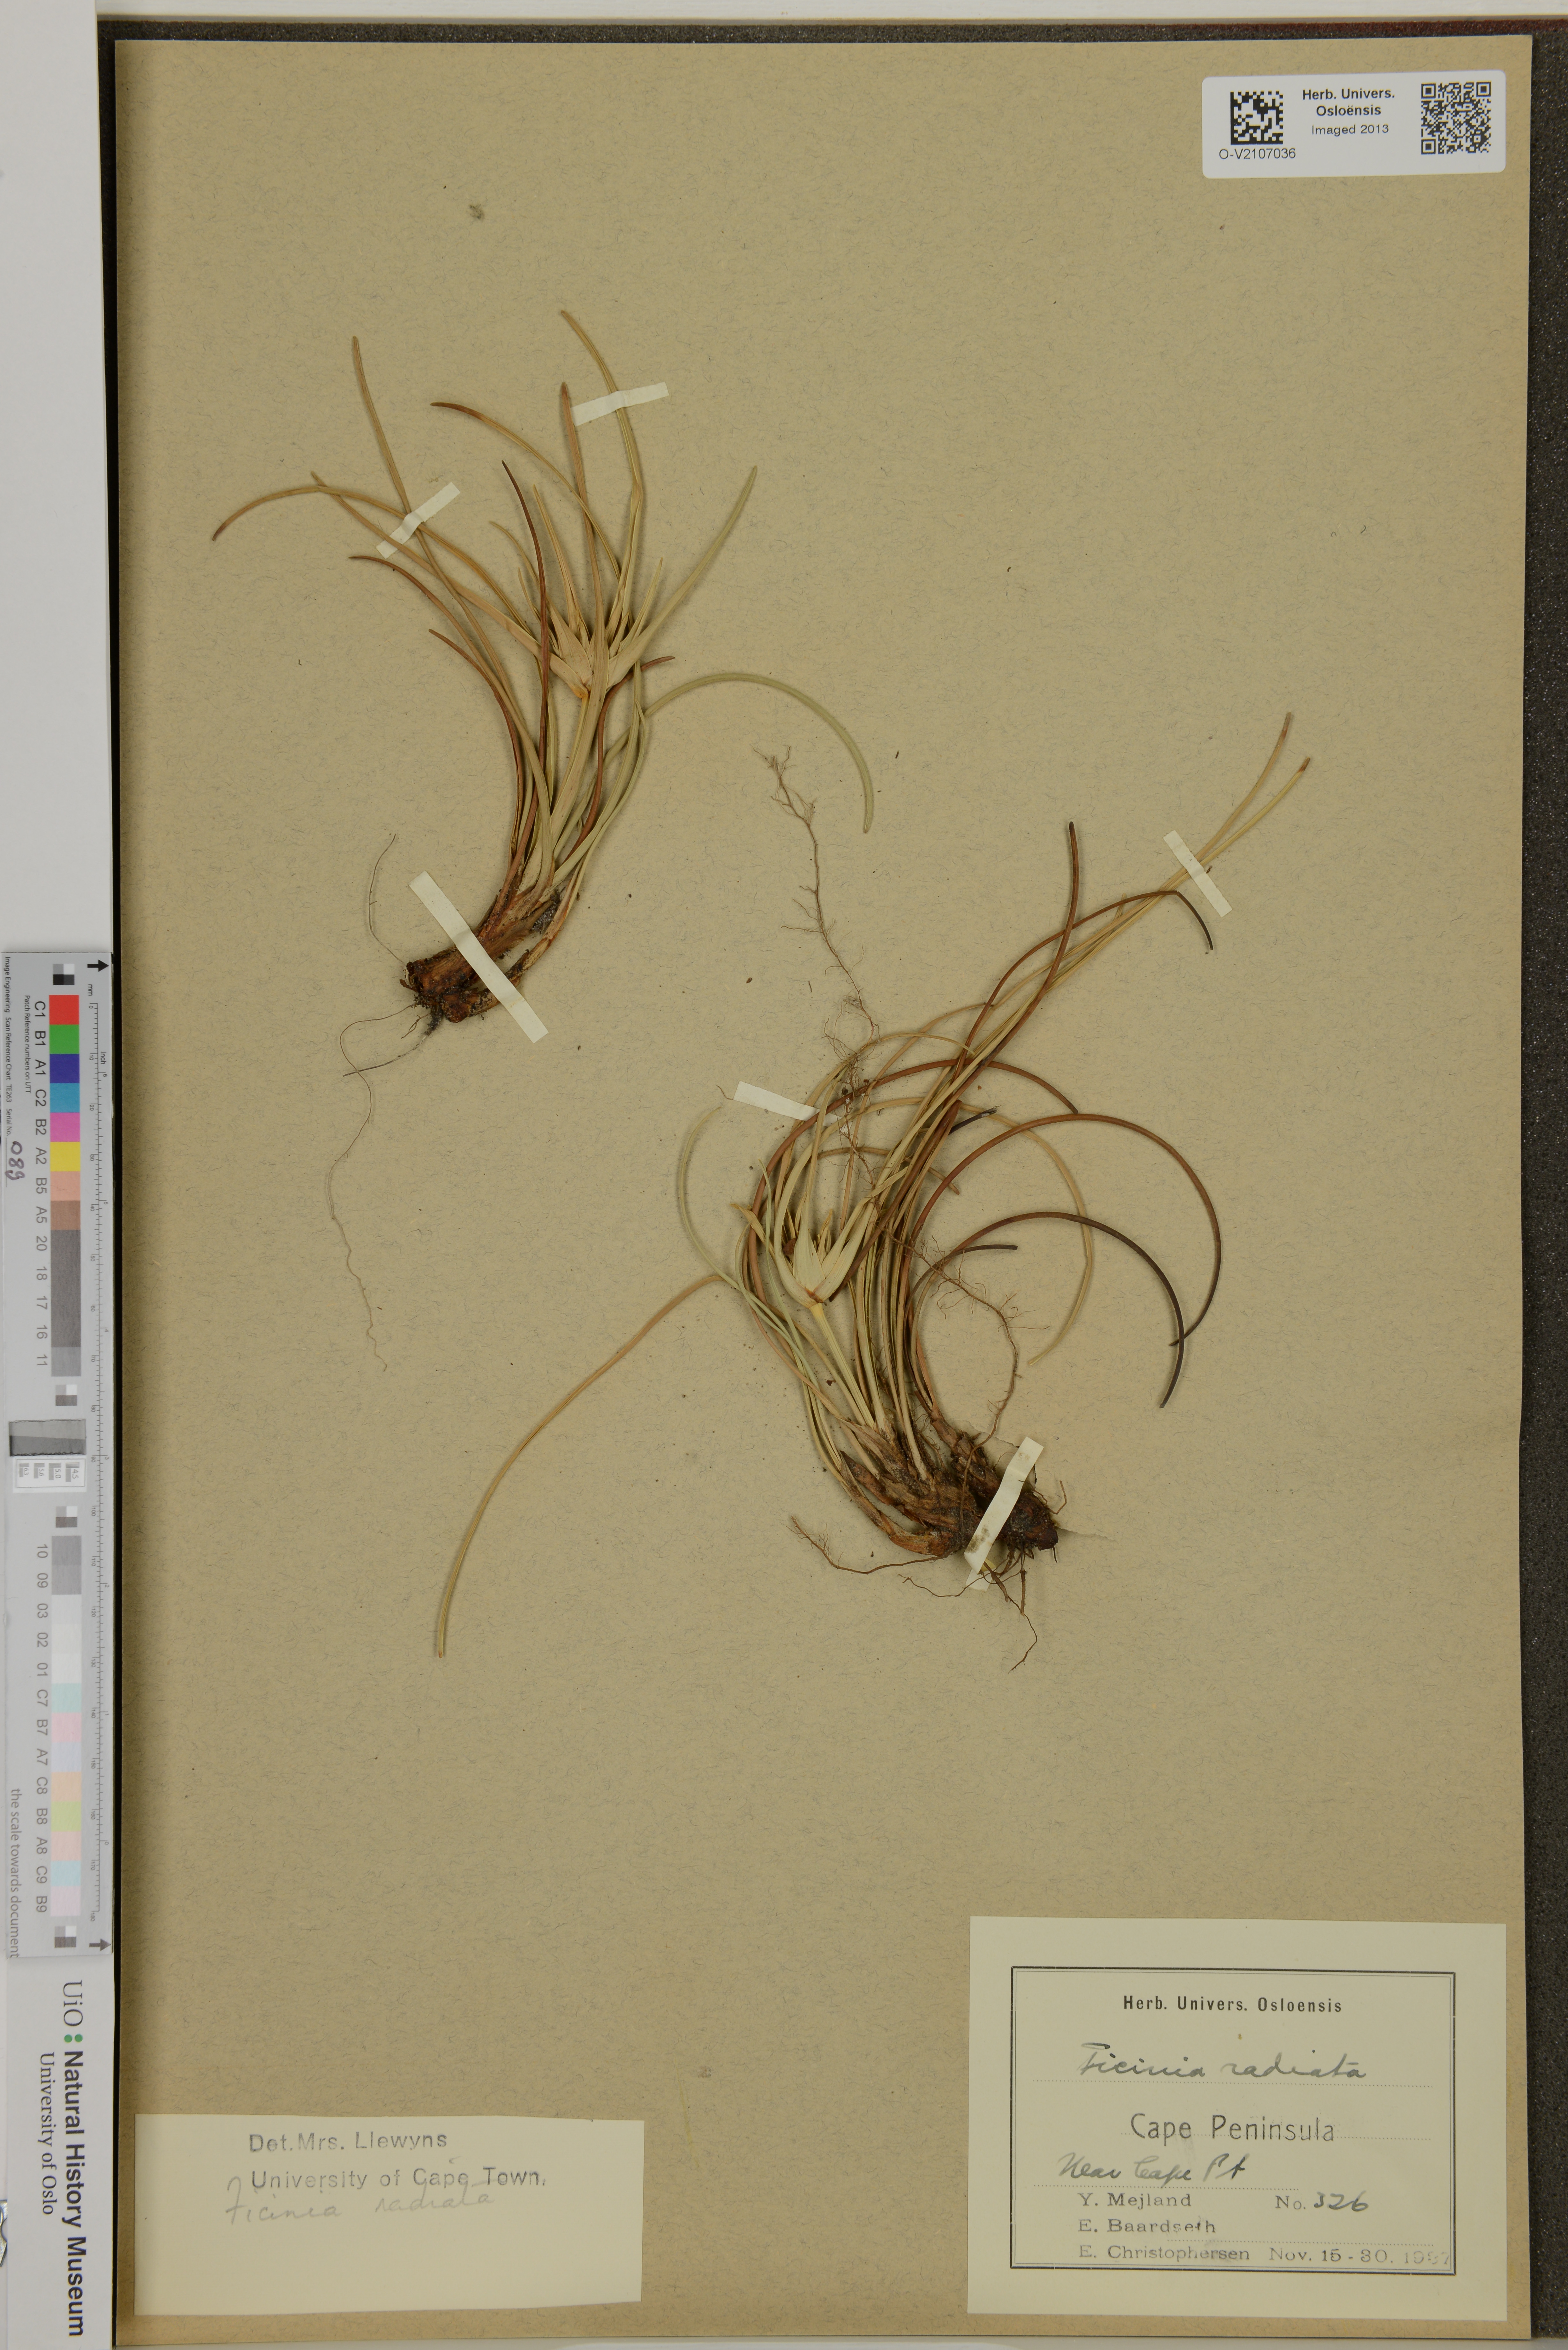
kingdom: Plantae
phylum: Tracheophyta
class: Liliopsida
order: Poales
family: Cyperaceae
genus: Ficinia
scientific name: Ficinia radiata
